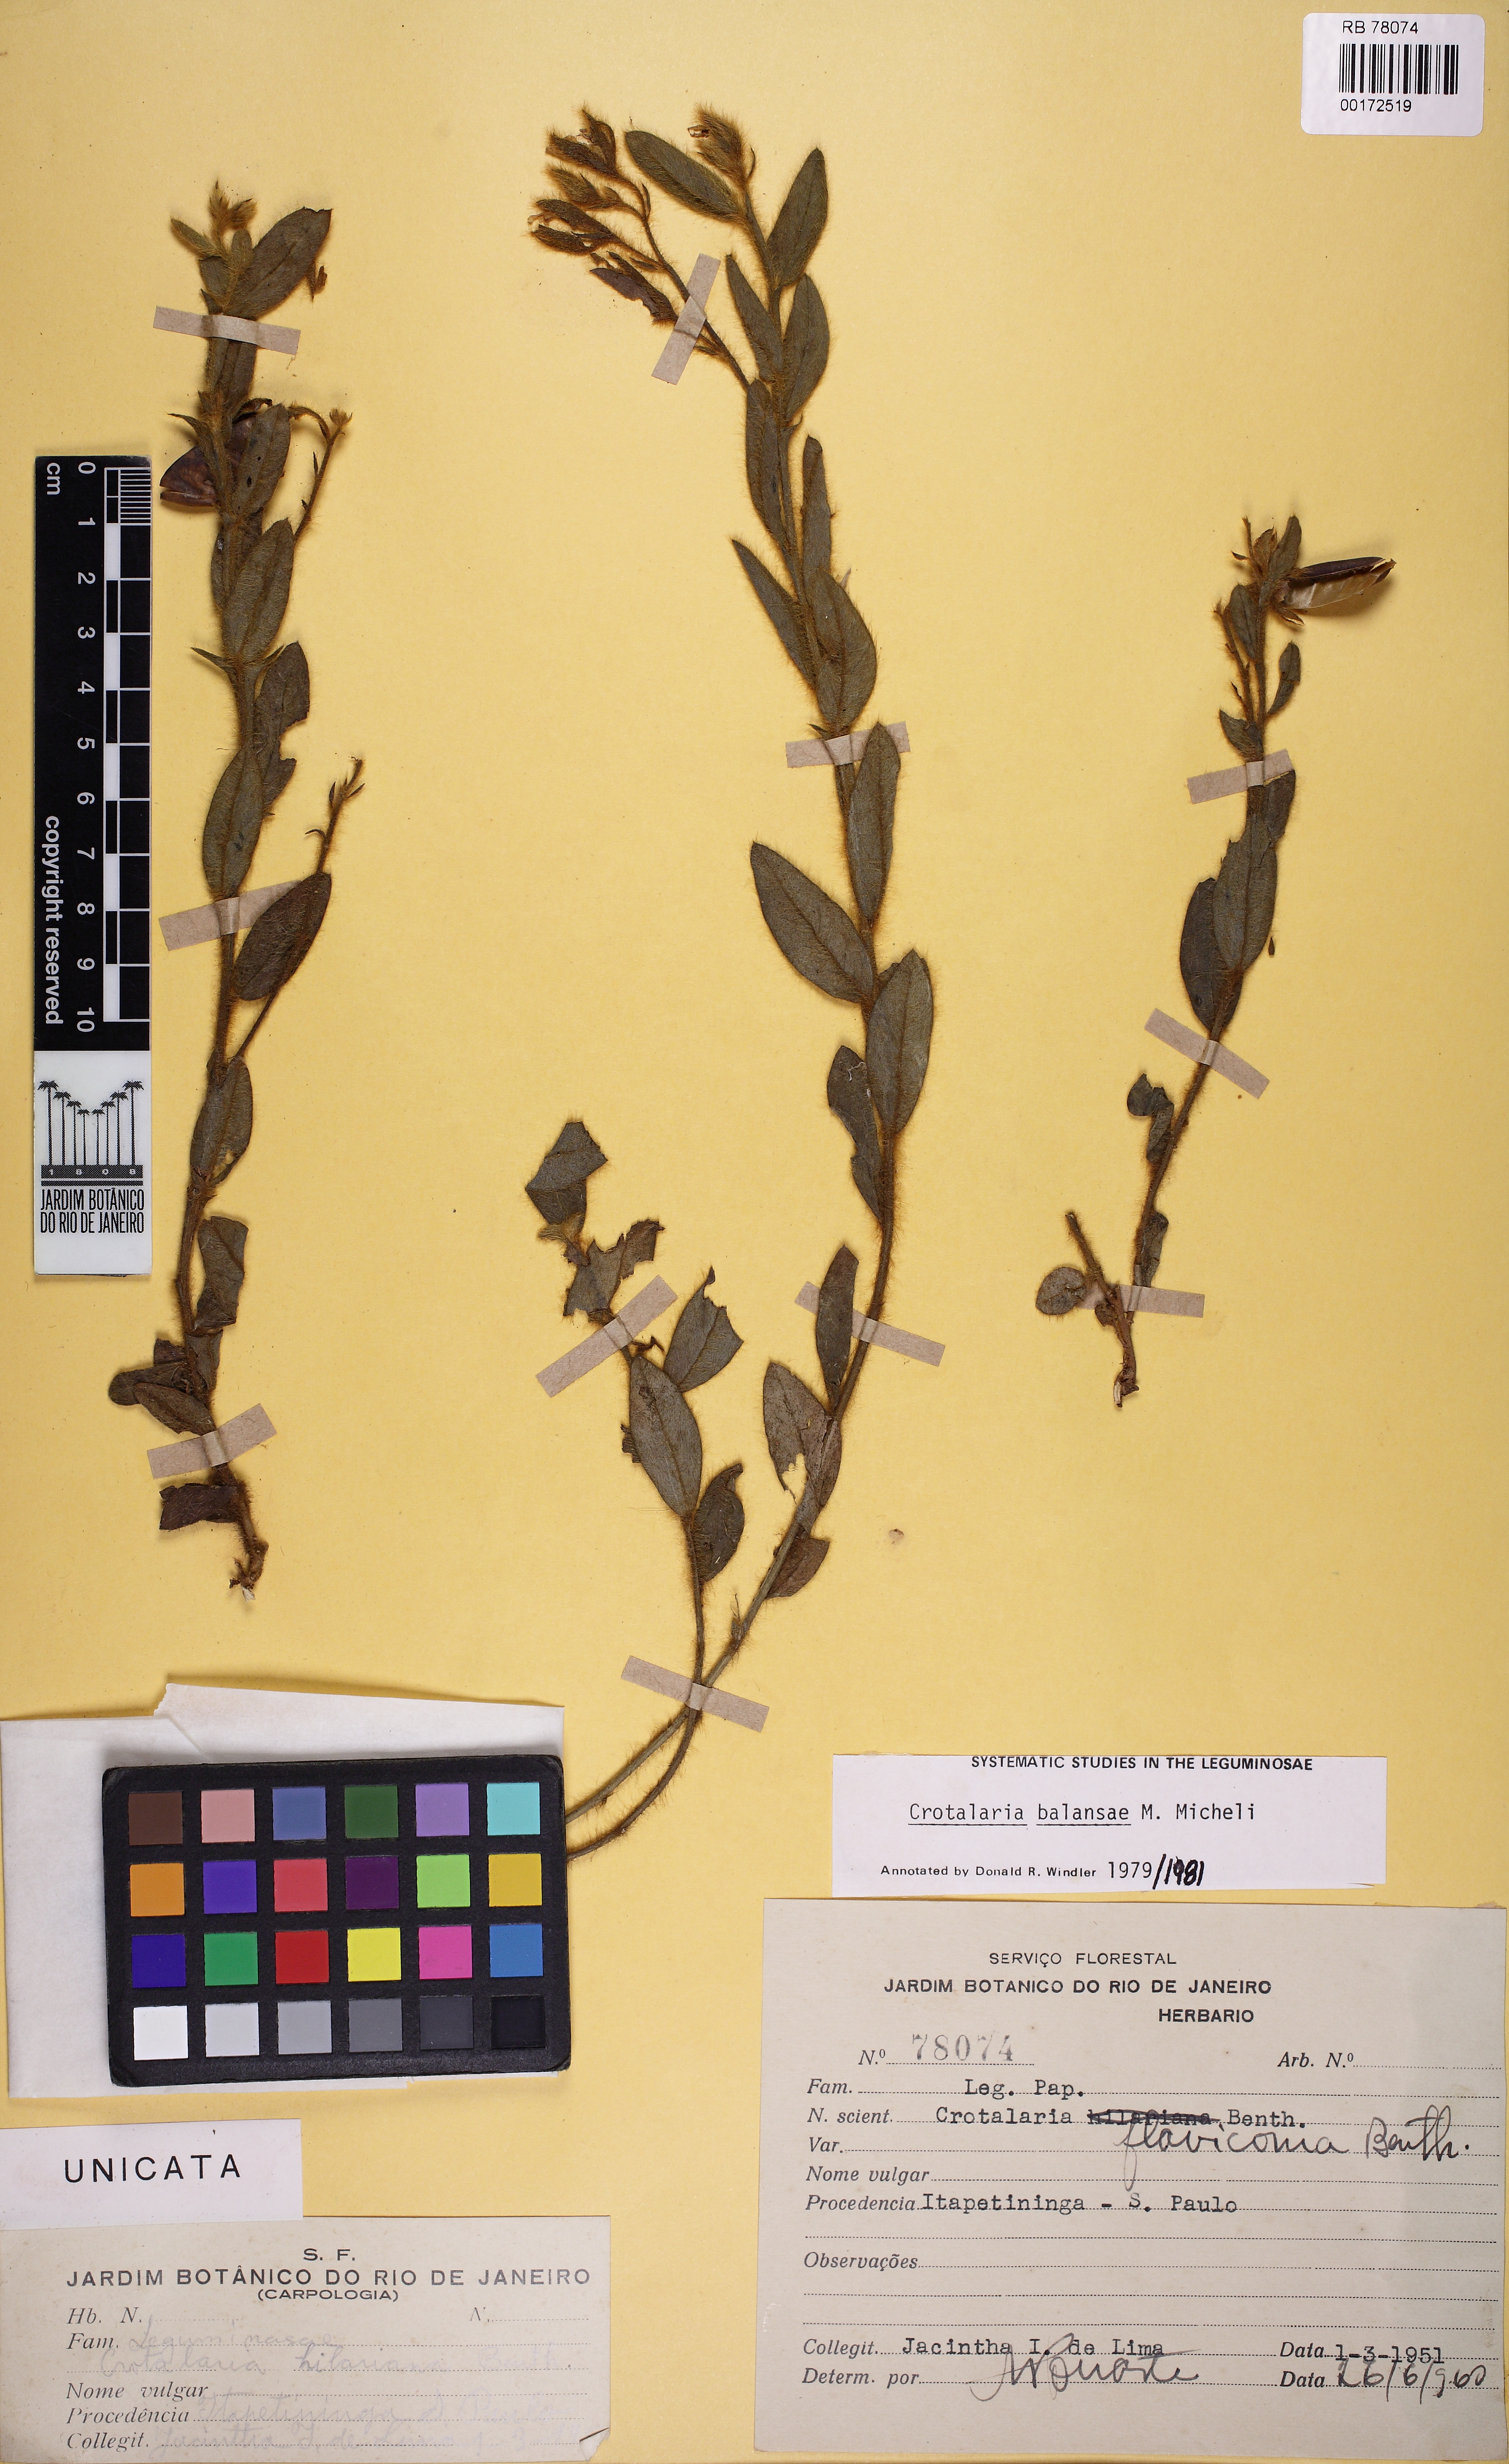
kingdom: Plantae
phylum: Tracheophyta
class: Magnoliopsida
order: Fabales
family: Fabaceae
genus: Crotalaria
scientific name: Crotalaria balansae
